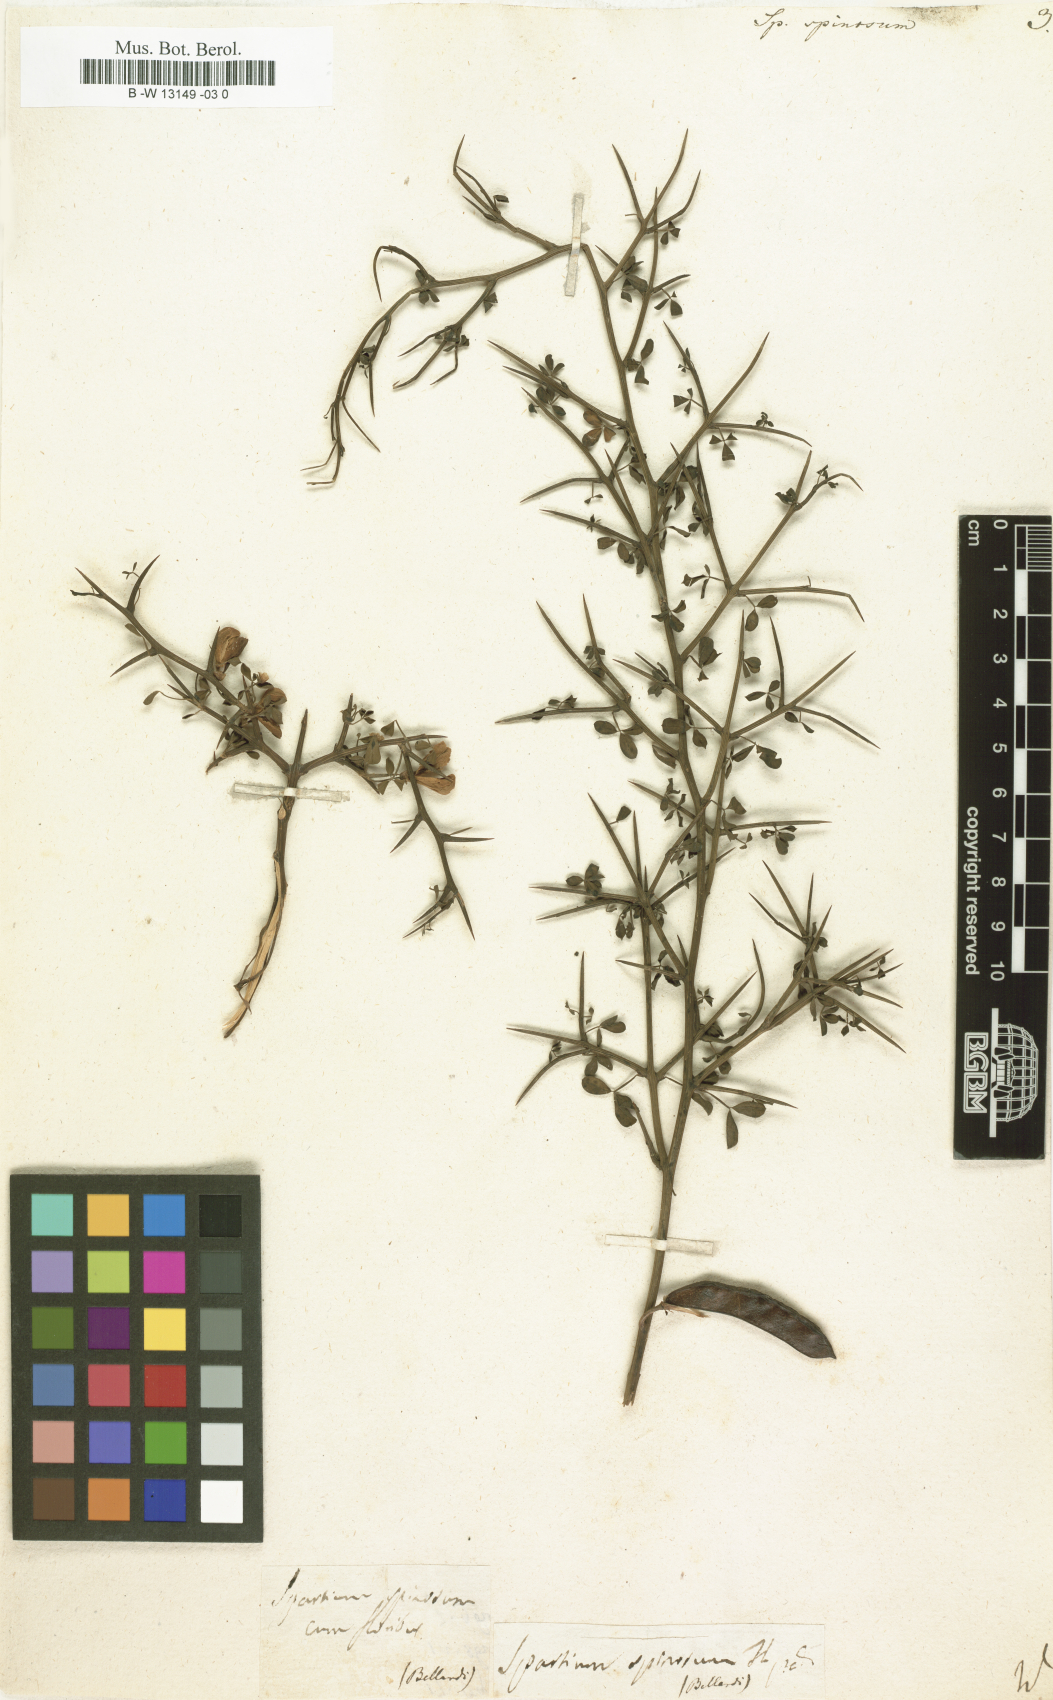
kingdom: Plantae
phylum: Tracheophyta
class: Magnoliopsida
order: Fabales
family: Fabaceae
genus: Spartium
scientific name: Spartium spinosum
